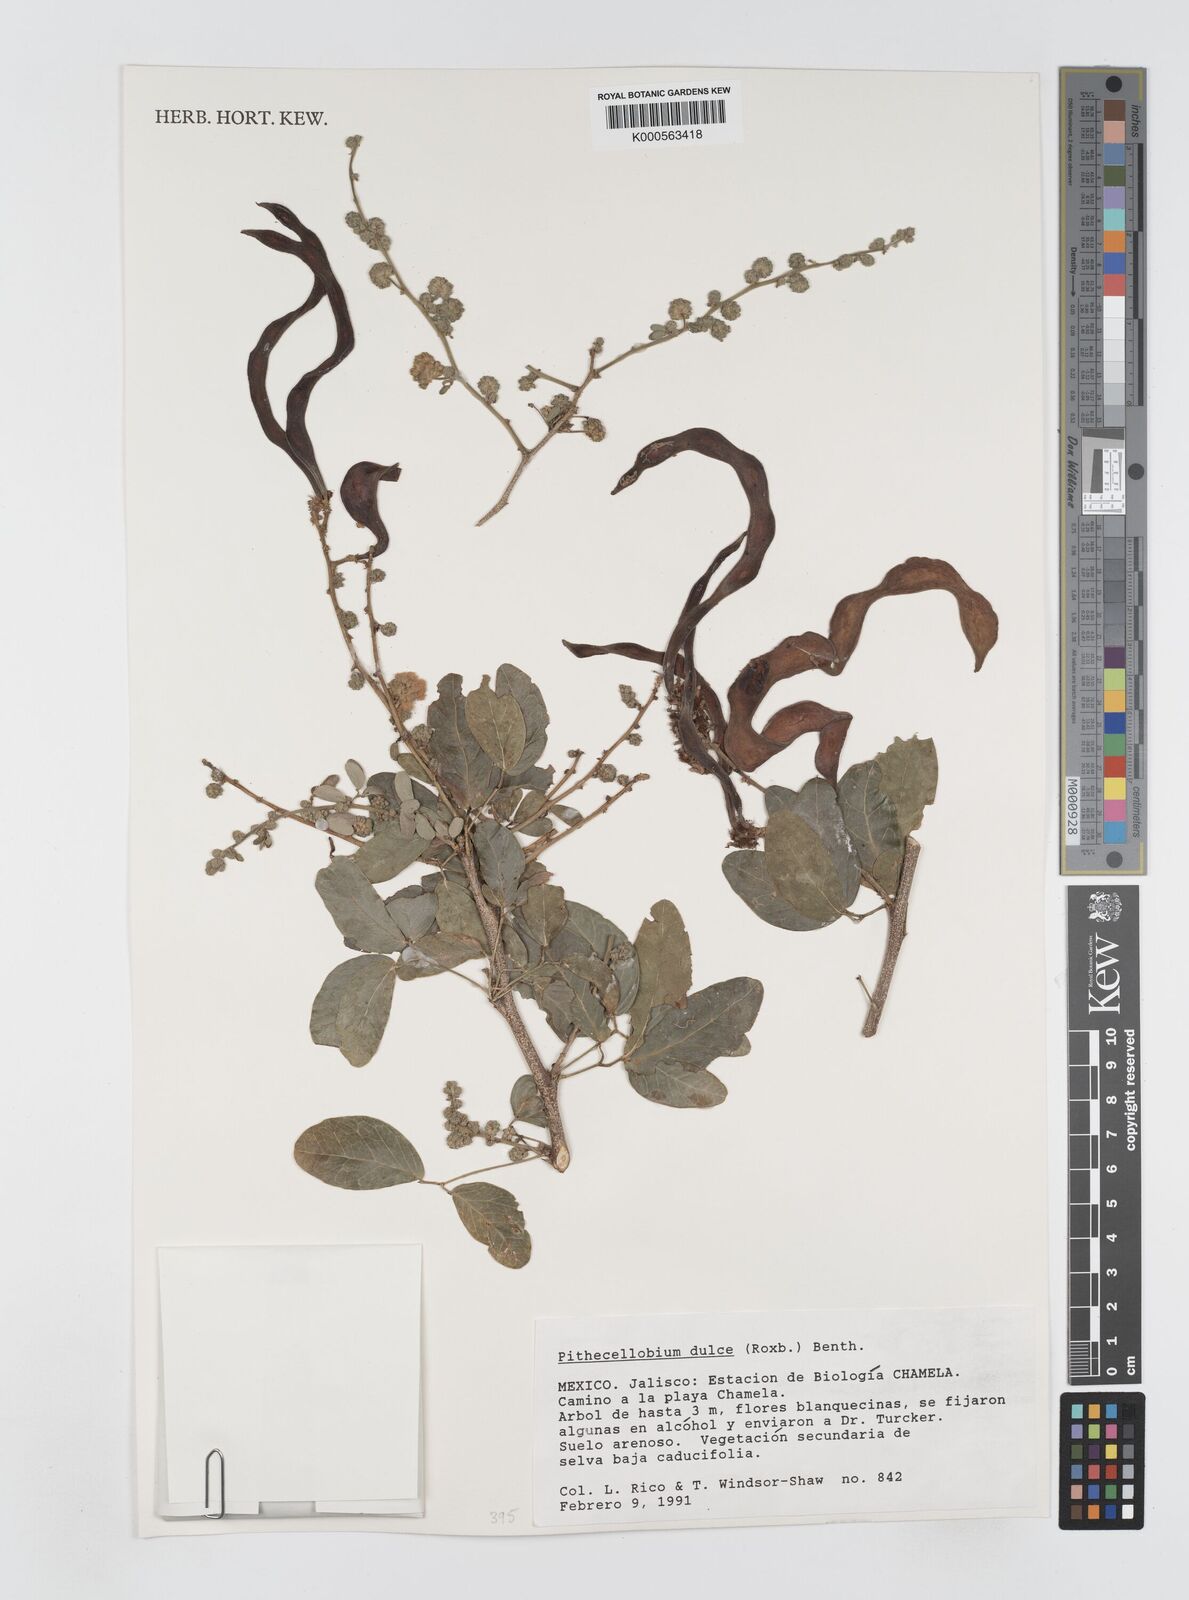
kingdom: Plantae
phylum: Tracheophyta
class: Magnoliopsida
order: Fabales
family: Fabaceae
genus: Pithecellobium
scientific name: Pithecellobium dulce
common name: Monkeypod
